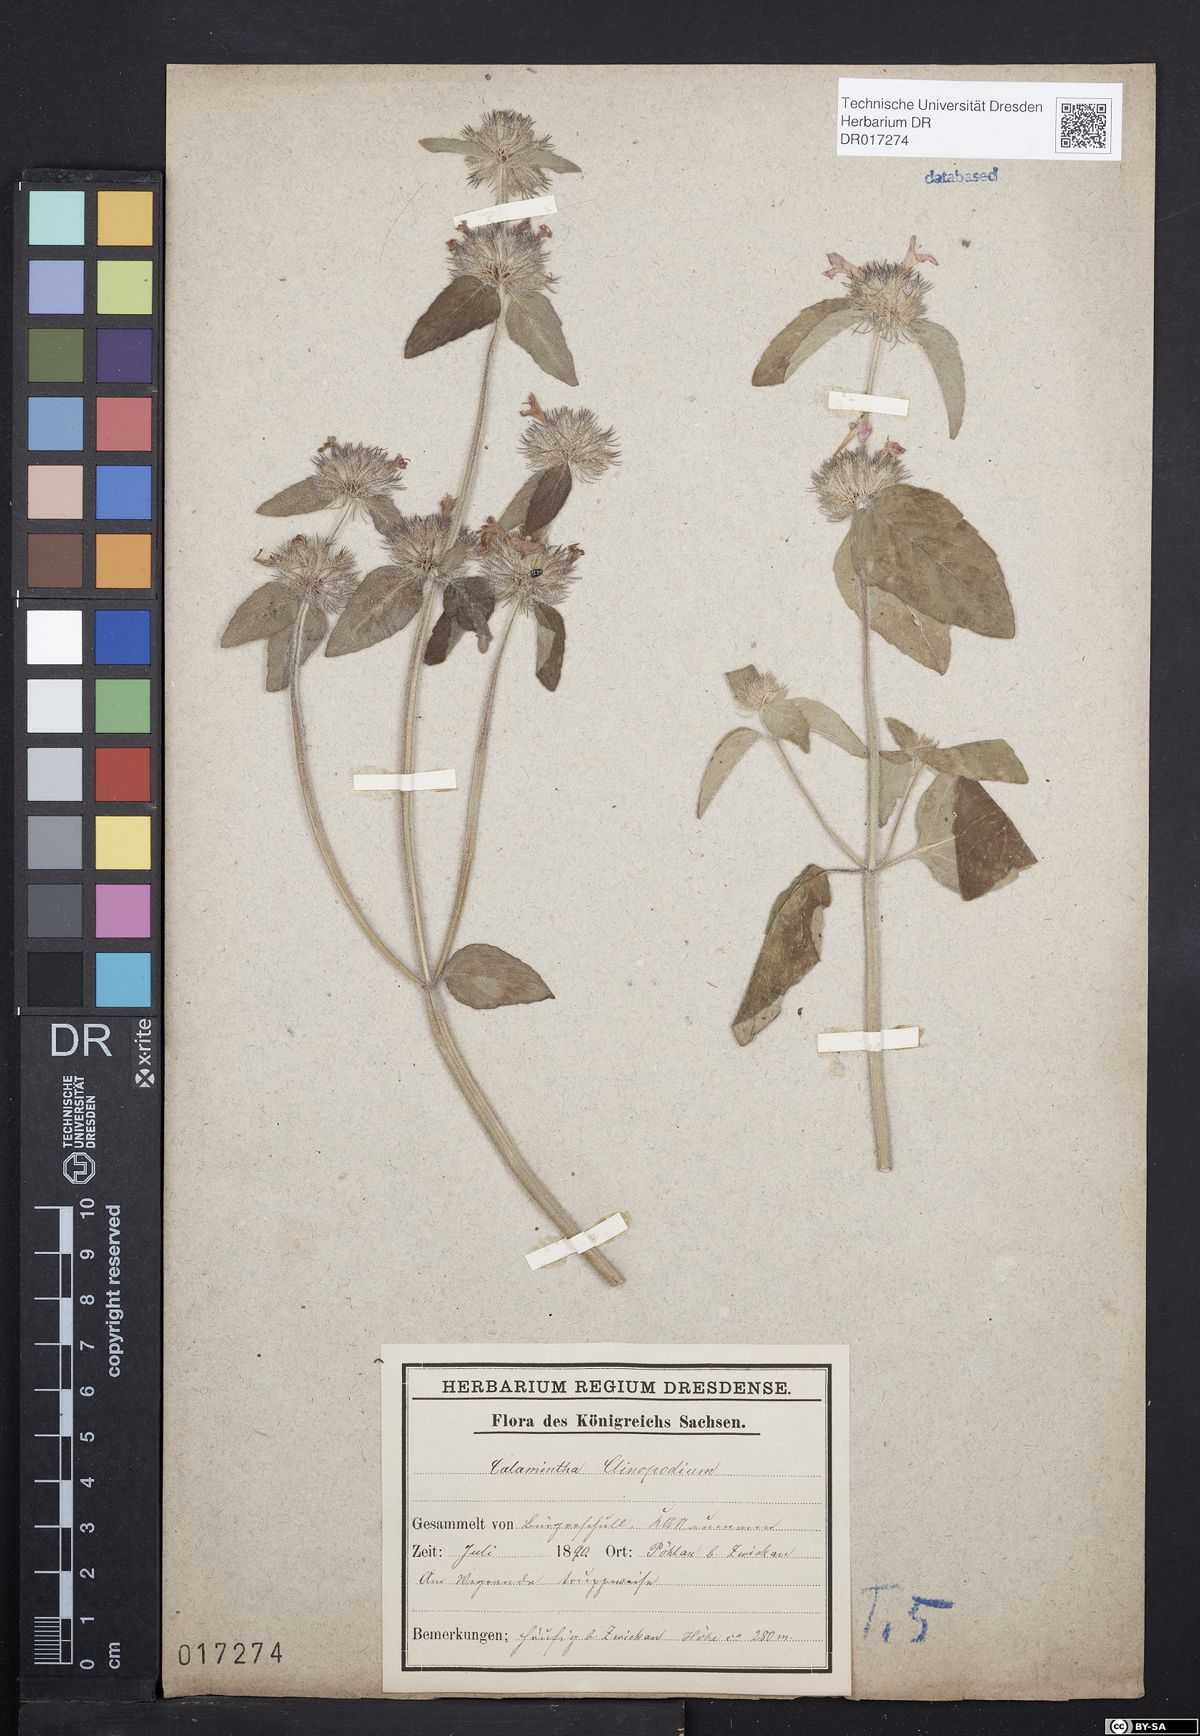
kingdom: Plantae
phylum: Tracheophyta
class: Magnoliopsida
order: Lamiales
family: Lamiaceae
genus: Clinopodium
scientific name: Clinopodium vulgare
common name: Wild basil
